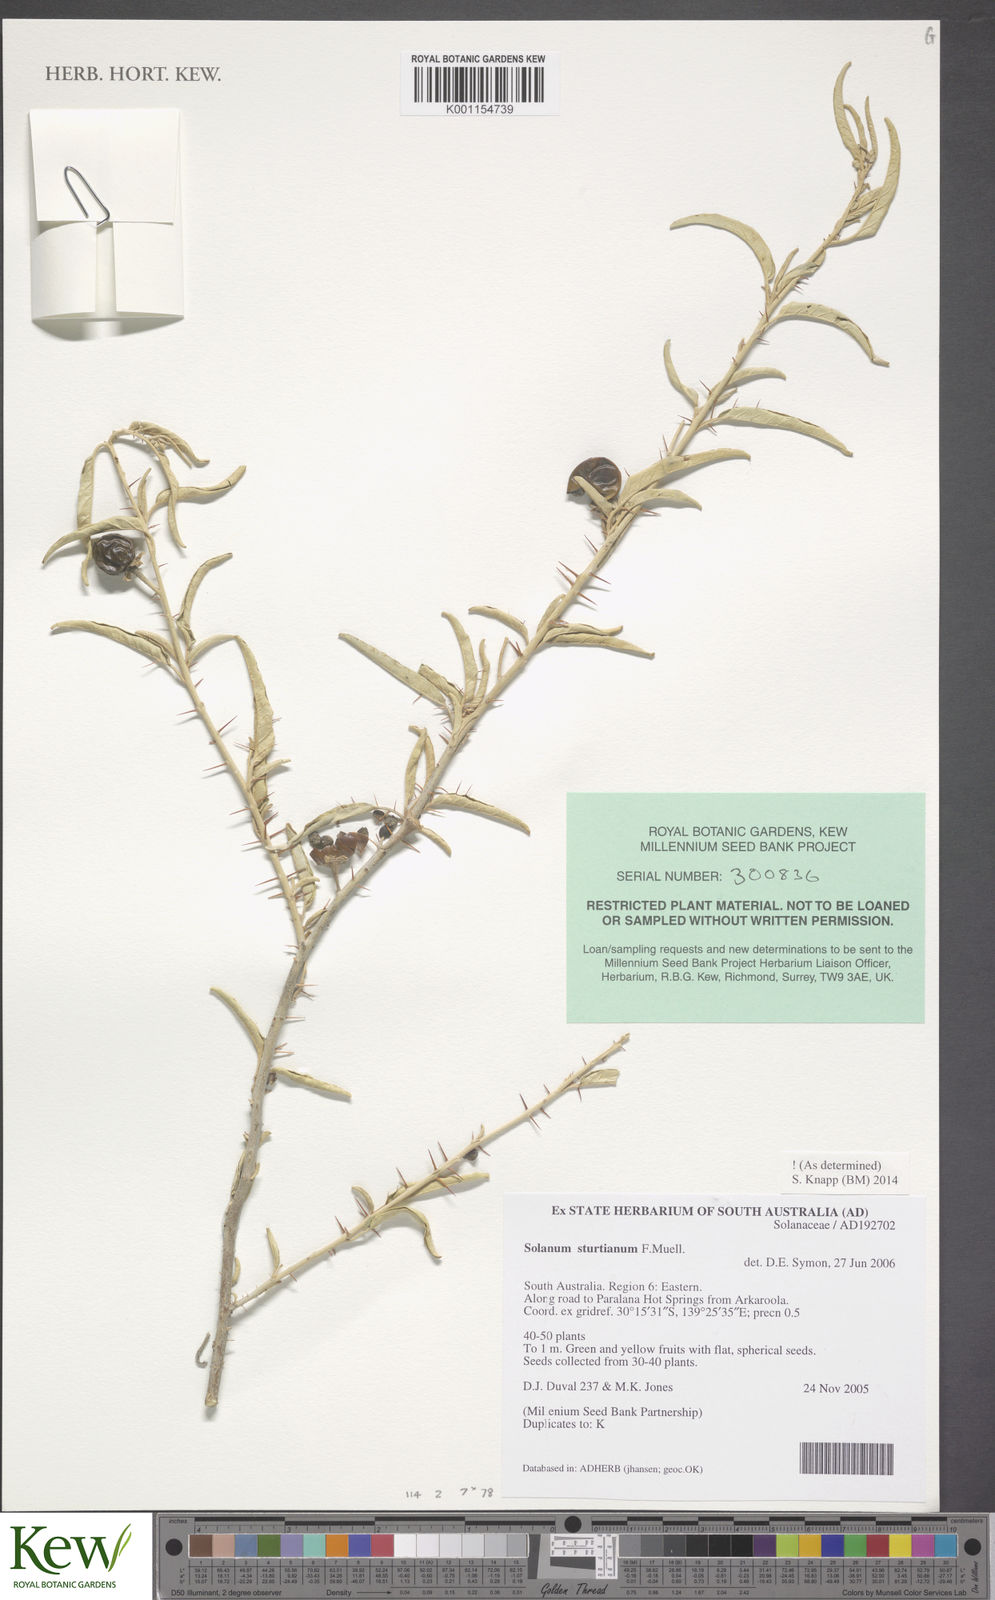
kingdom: Plantae
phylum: Tracheophyta
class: Magnoliopsida
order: Solanales
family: Solanaceae
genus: Solanum
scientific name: Solanum sturtianum
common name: Thargomindah nightshade
